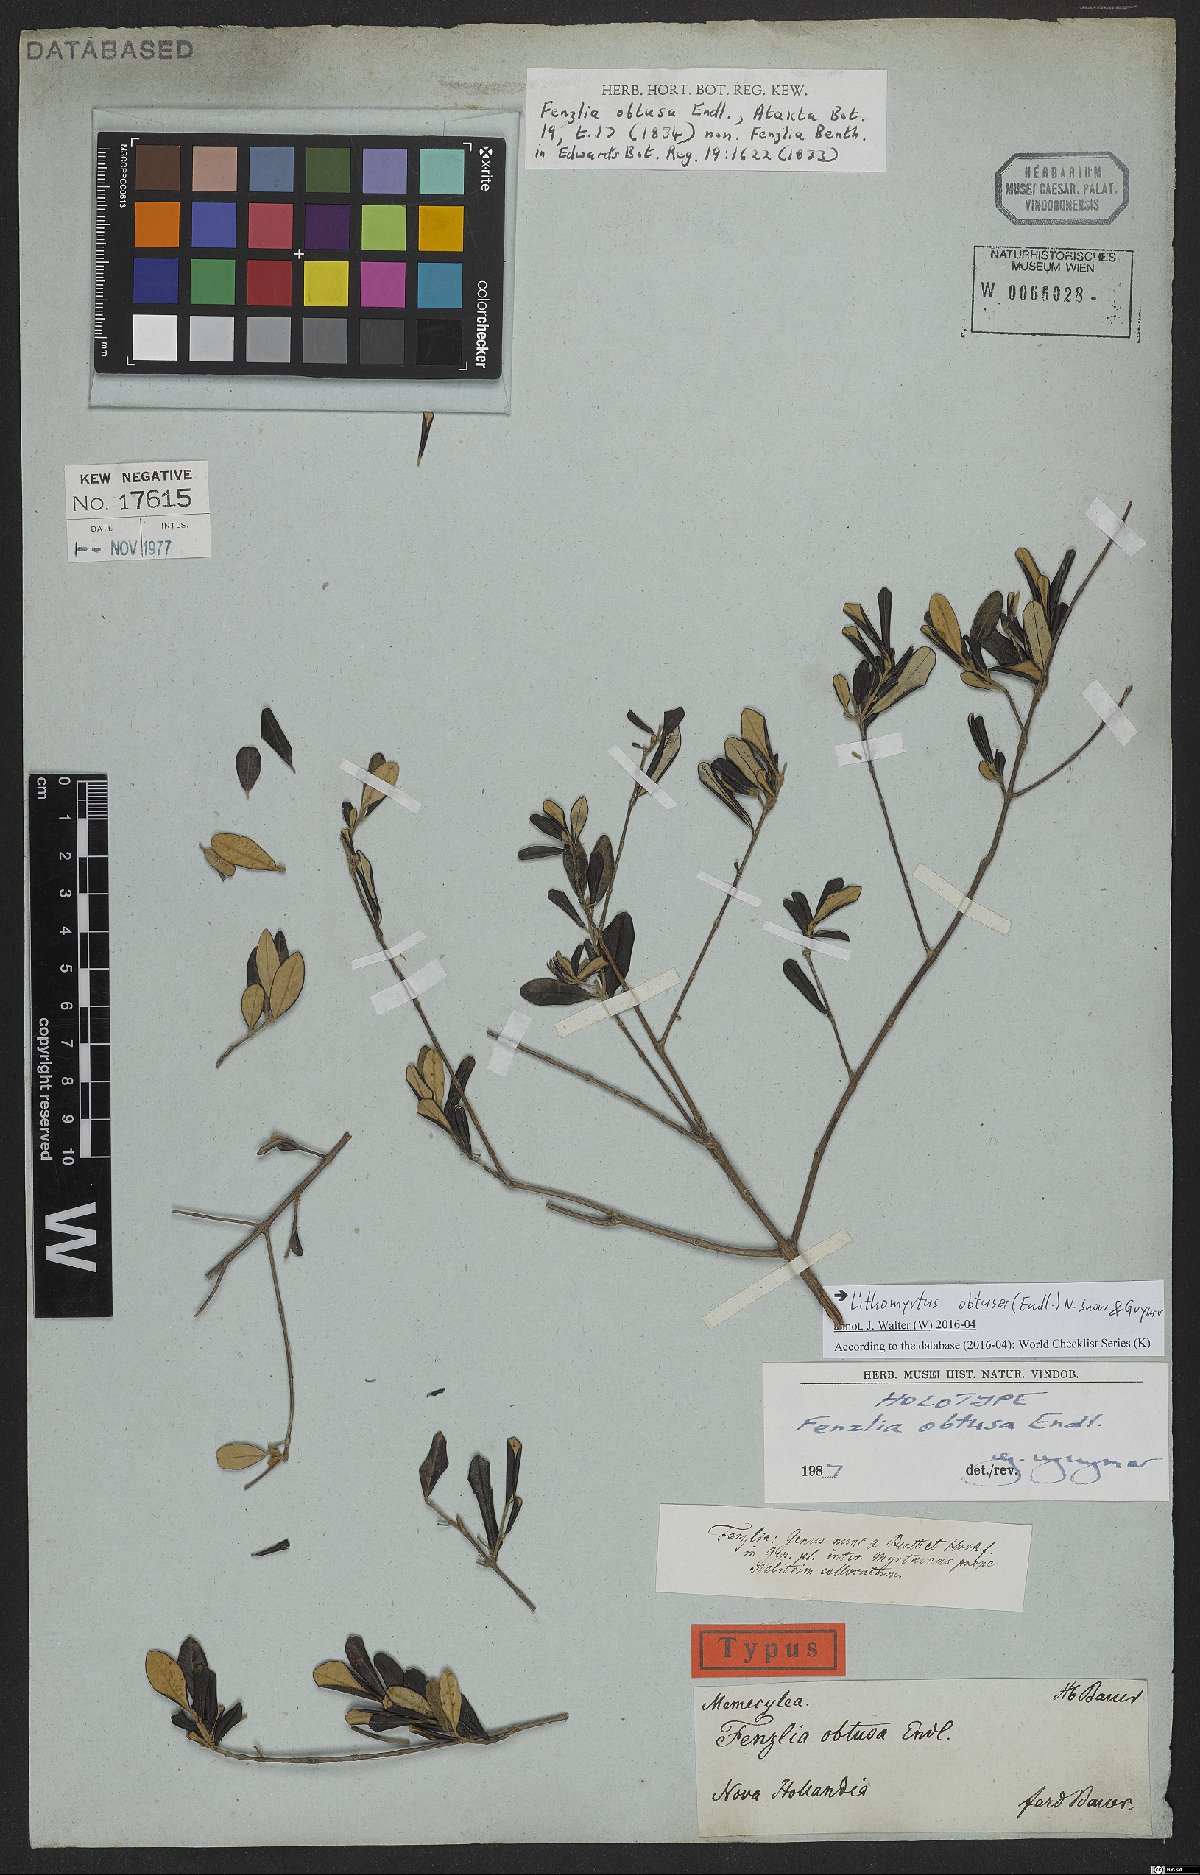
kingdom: Plantae
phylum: Tracheophyta
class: Magnoliopsida
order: Myrtales
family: Myrtaceae
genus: Lithomyrtus
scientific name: Lithomyrtus obtusa
